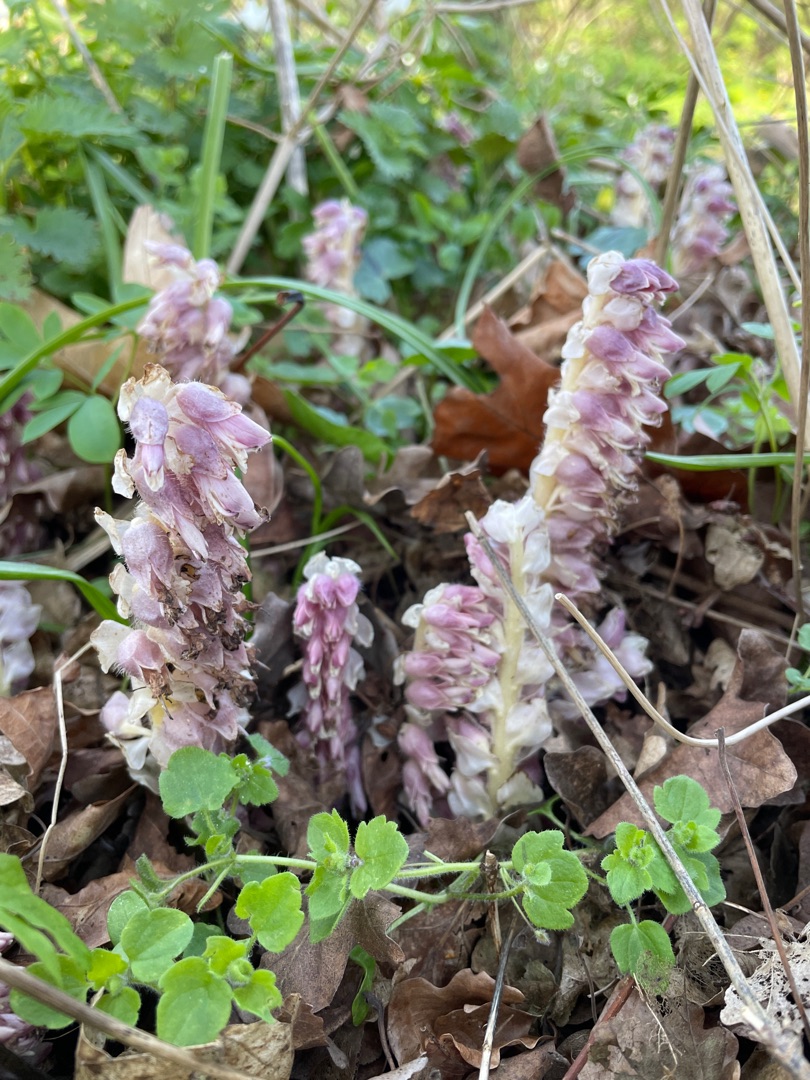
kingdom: Plantae
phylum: Tracheophyta
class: Magnoliopsida
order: Lamiales
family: Orobanchaceae
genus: Lathraea
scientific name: Lathraea squamaria
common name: Skælrod
